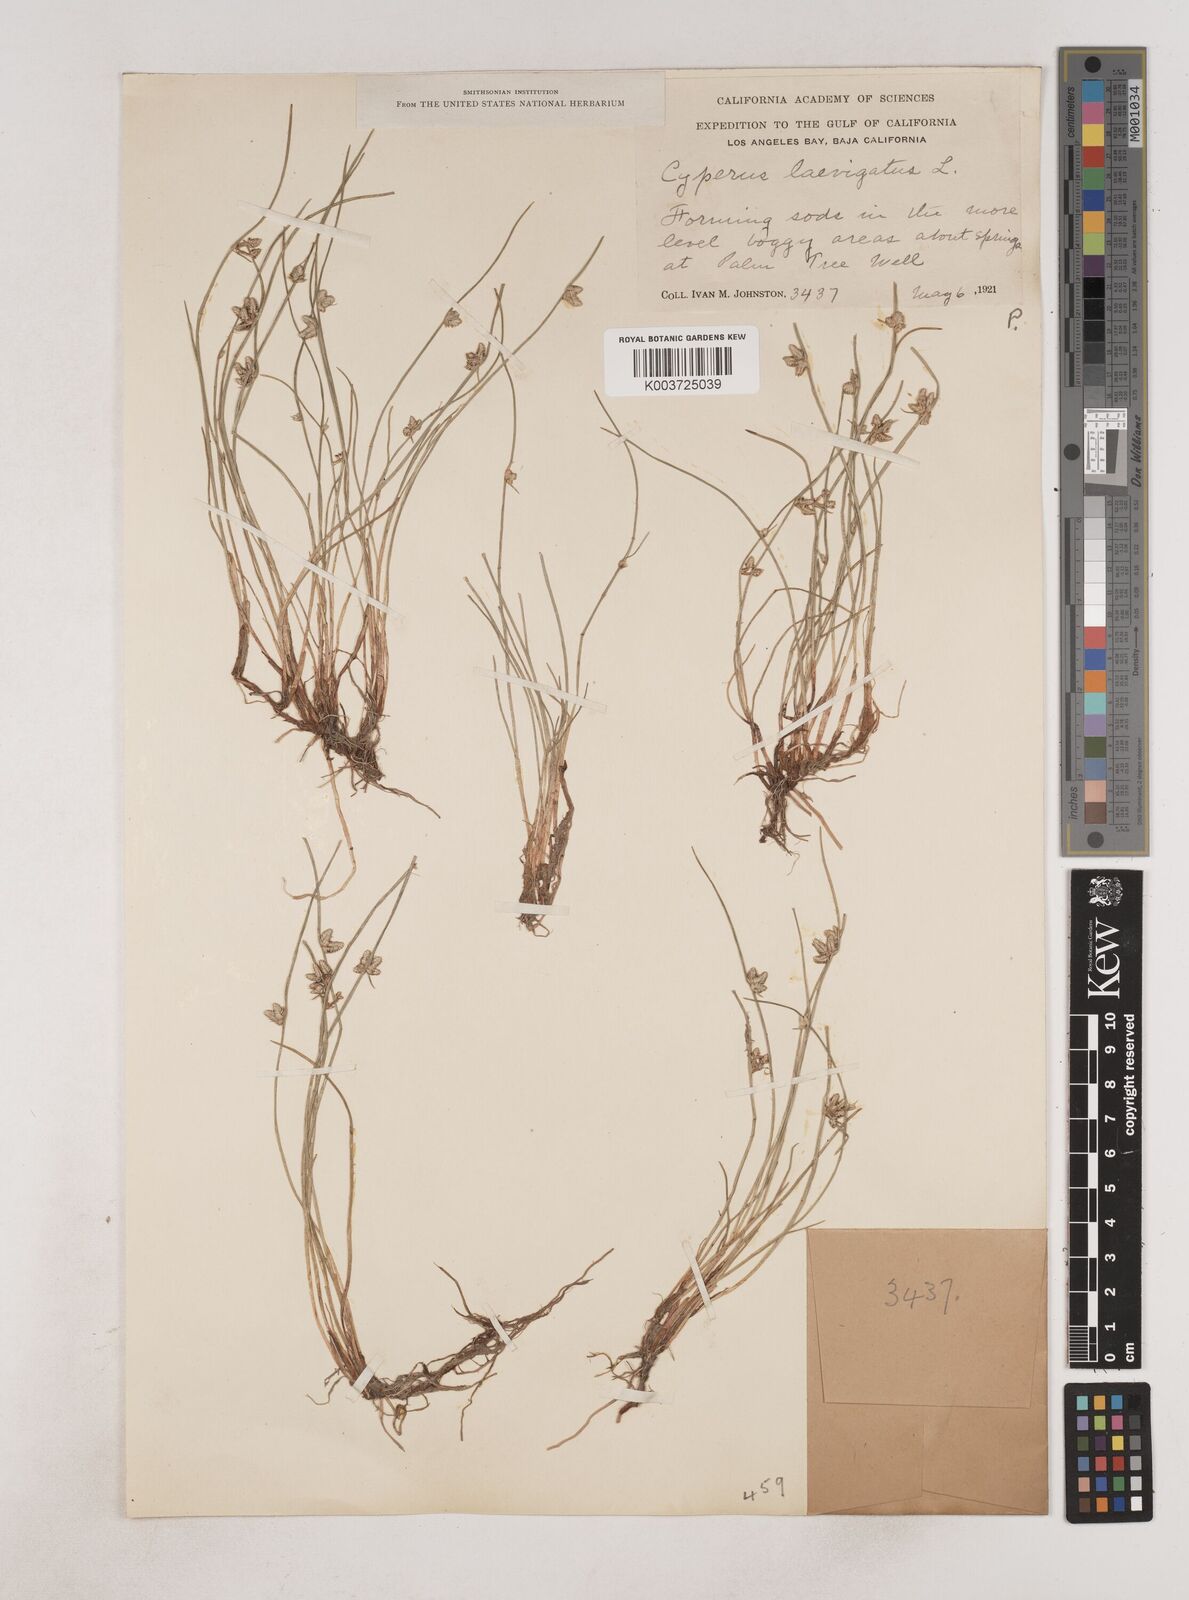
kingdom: Plantae
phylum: Tracheophyta
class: Liliopsida
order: Poales
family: Cyperaceae
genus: Cyperus
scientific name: Cyperus laevigatus
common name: Smooth flat sedge
